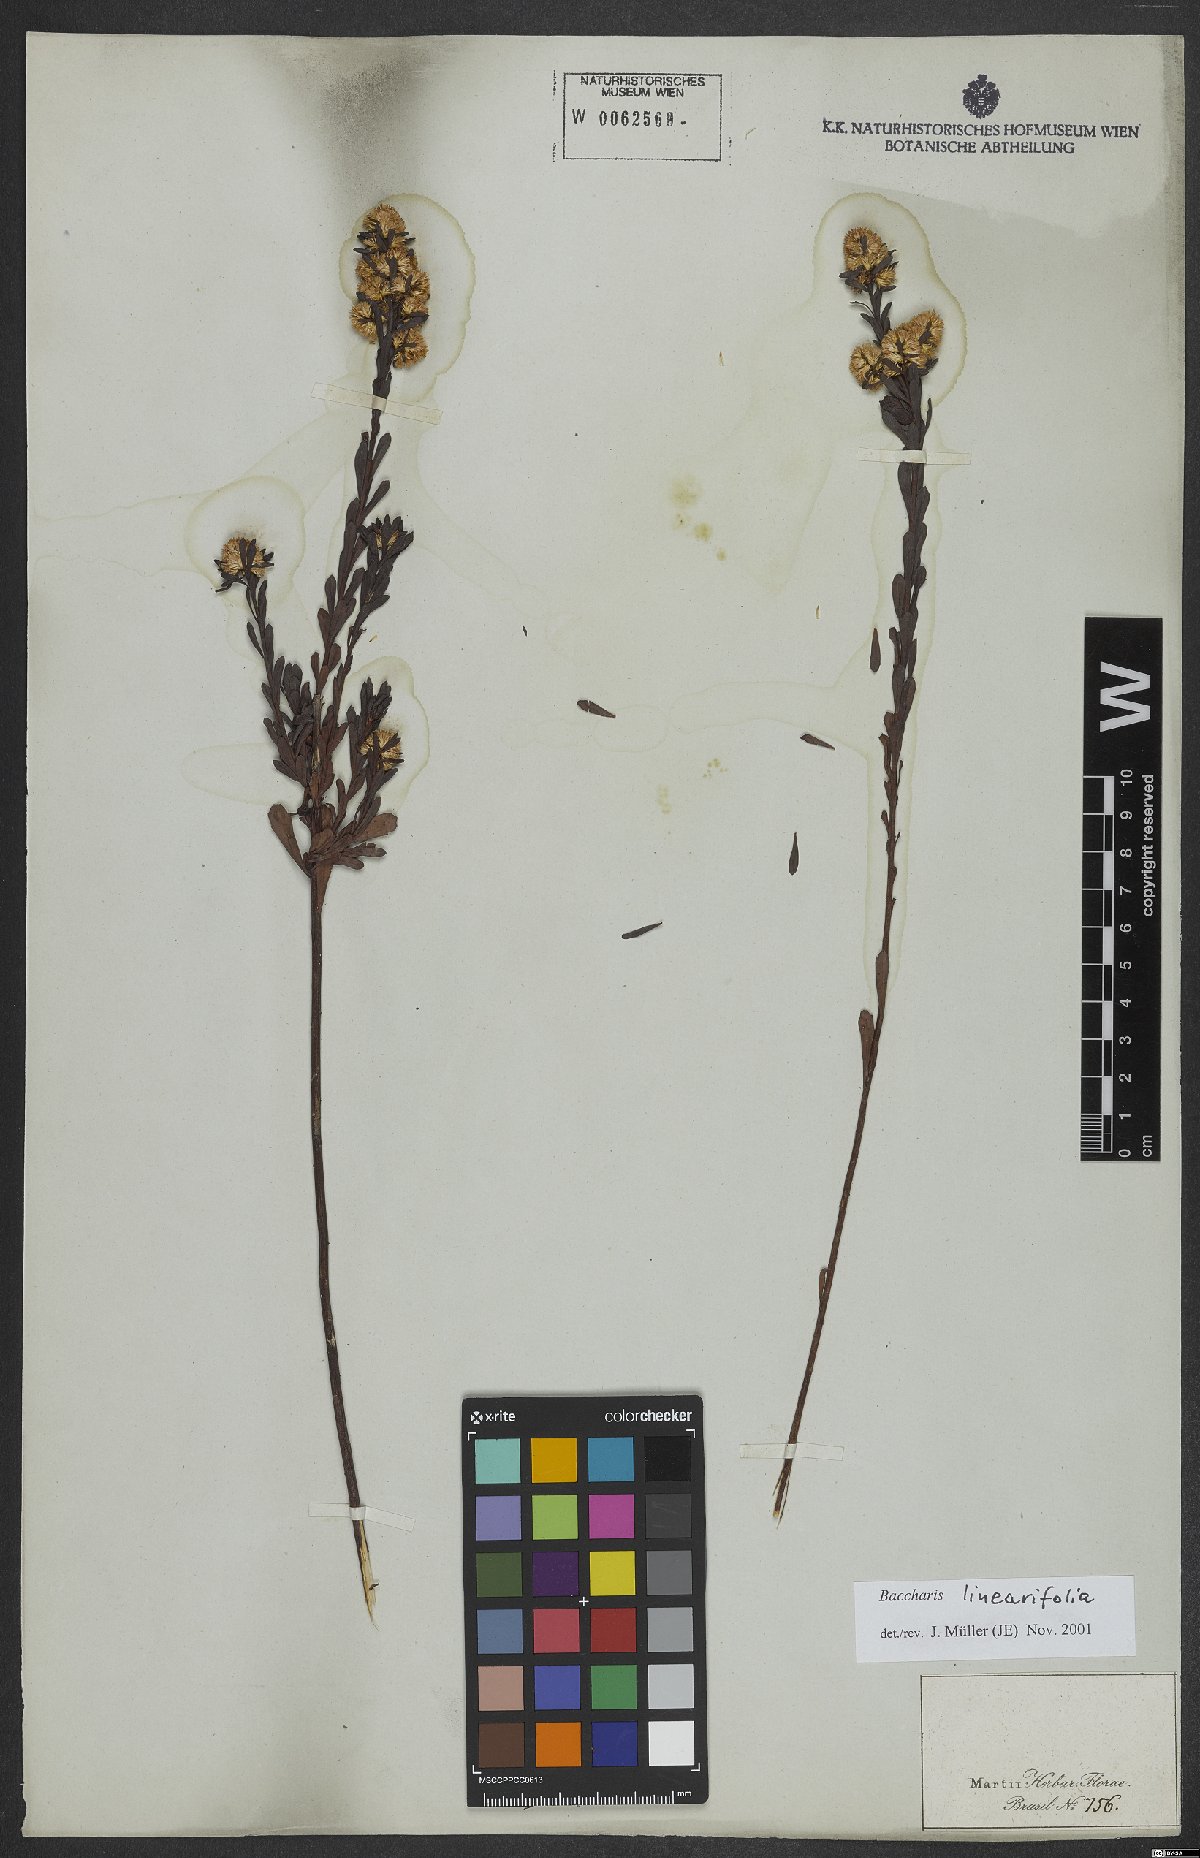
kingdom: Plantae
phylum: Tracheophyta
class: Magnoliopsida
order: Asterales
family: Asteraceae
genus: Baccharis
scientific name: Baccharis linearifolia
